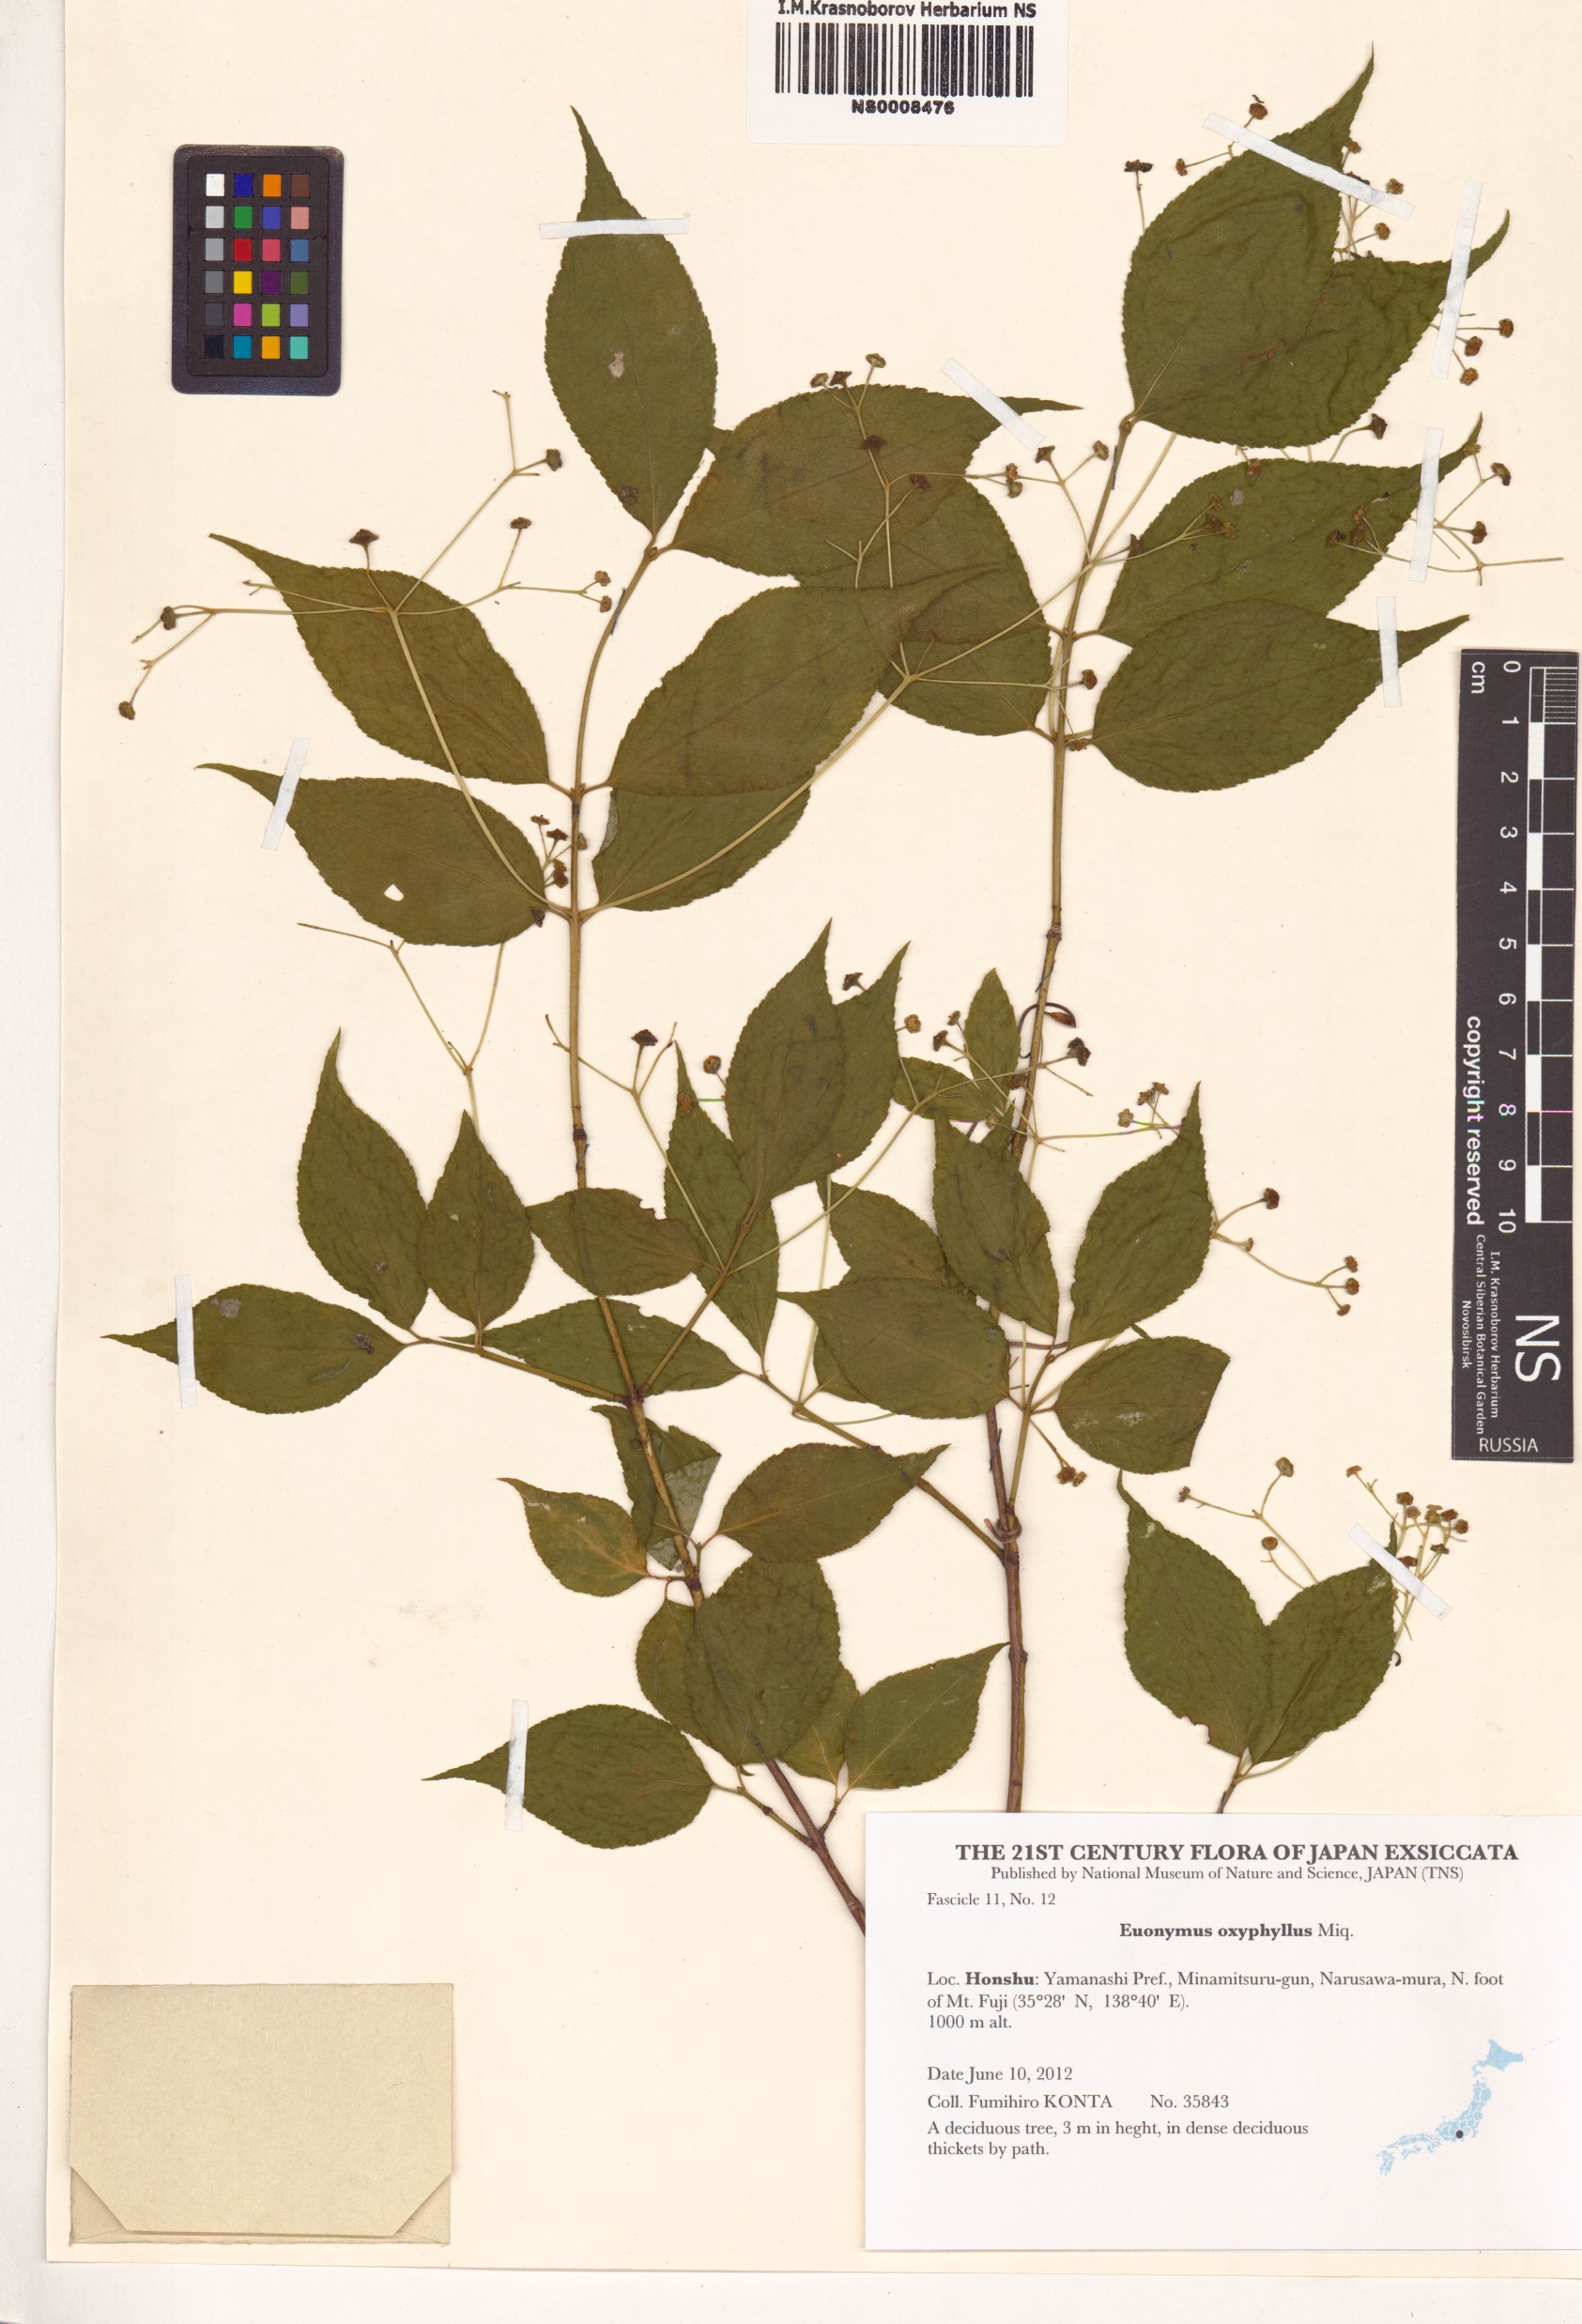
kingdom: Plantae
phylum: Tracheophyta
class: Magnoliopsida
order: Celastrales
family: Celastraceae
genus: Euonymus
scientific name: Euonymus oxyphyllus
